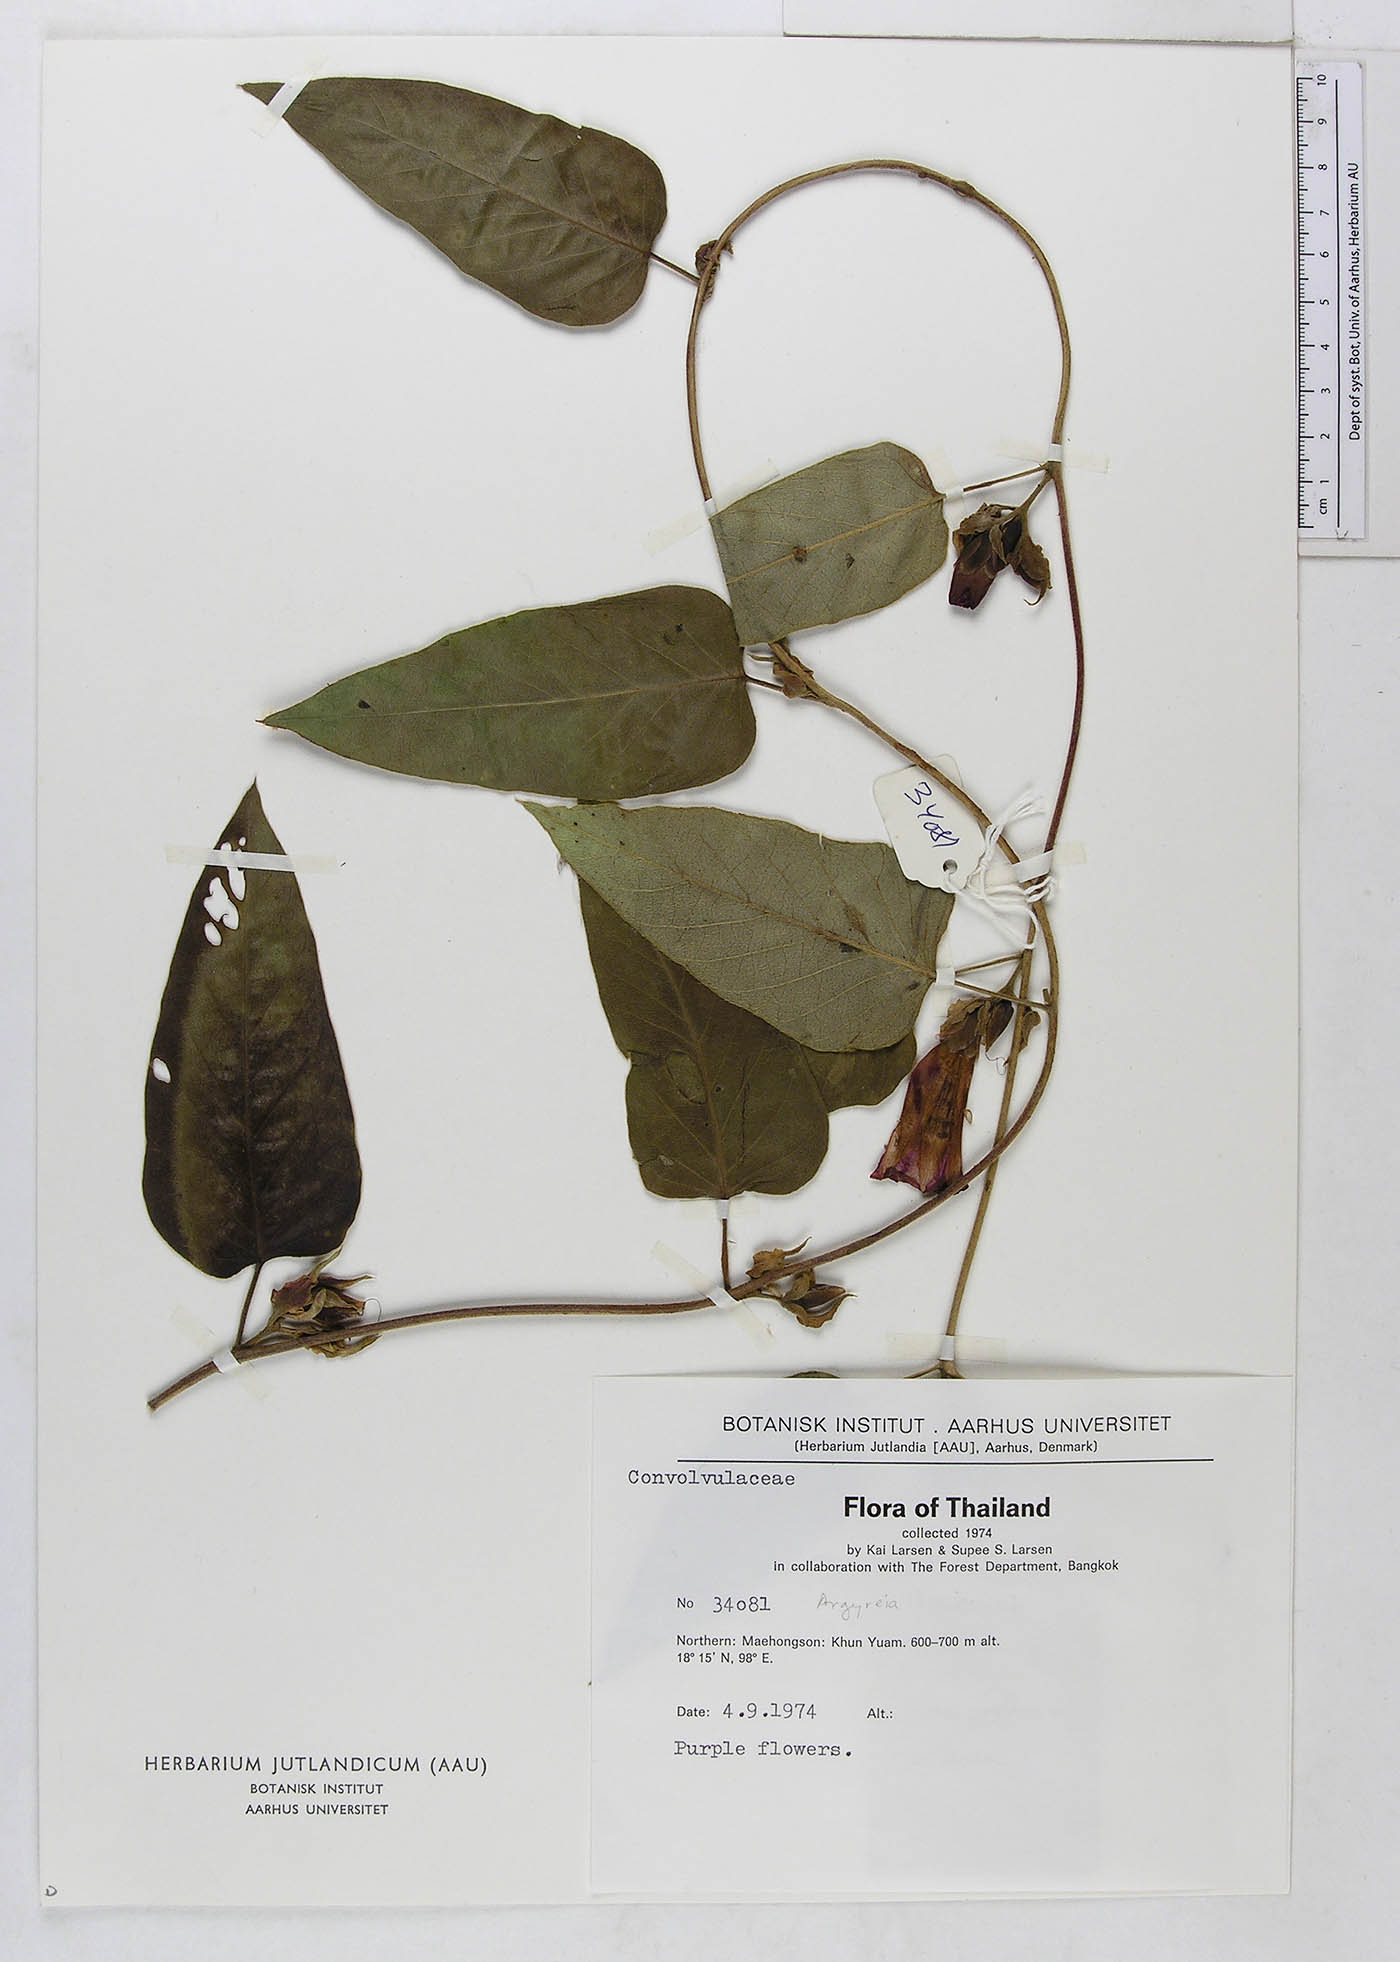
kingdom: Plantae
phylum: Tracheophyta
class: Magnoliopsida
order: Solanales
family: Convolvulaceae
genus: Argyreia
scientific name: Argyreia kerrii
